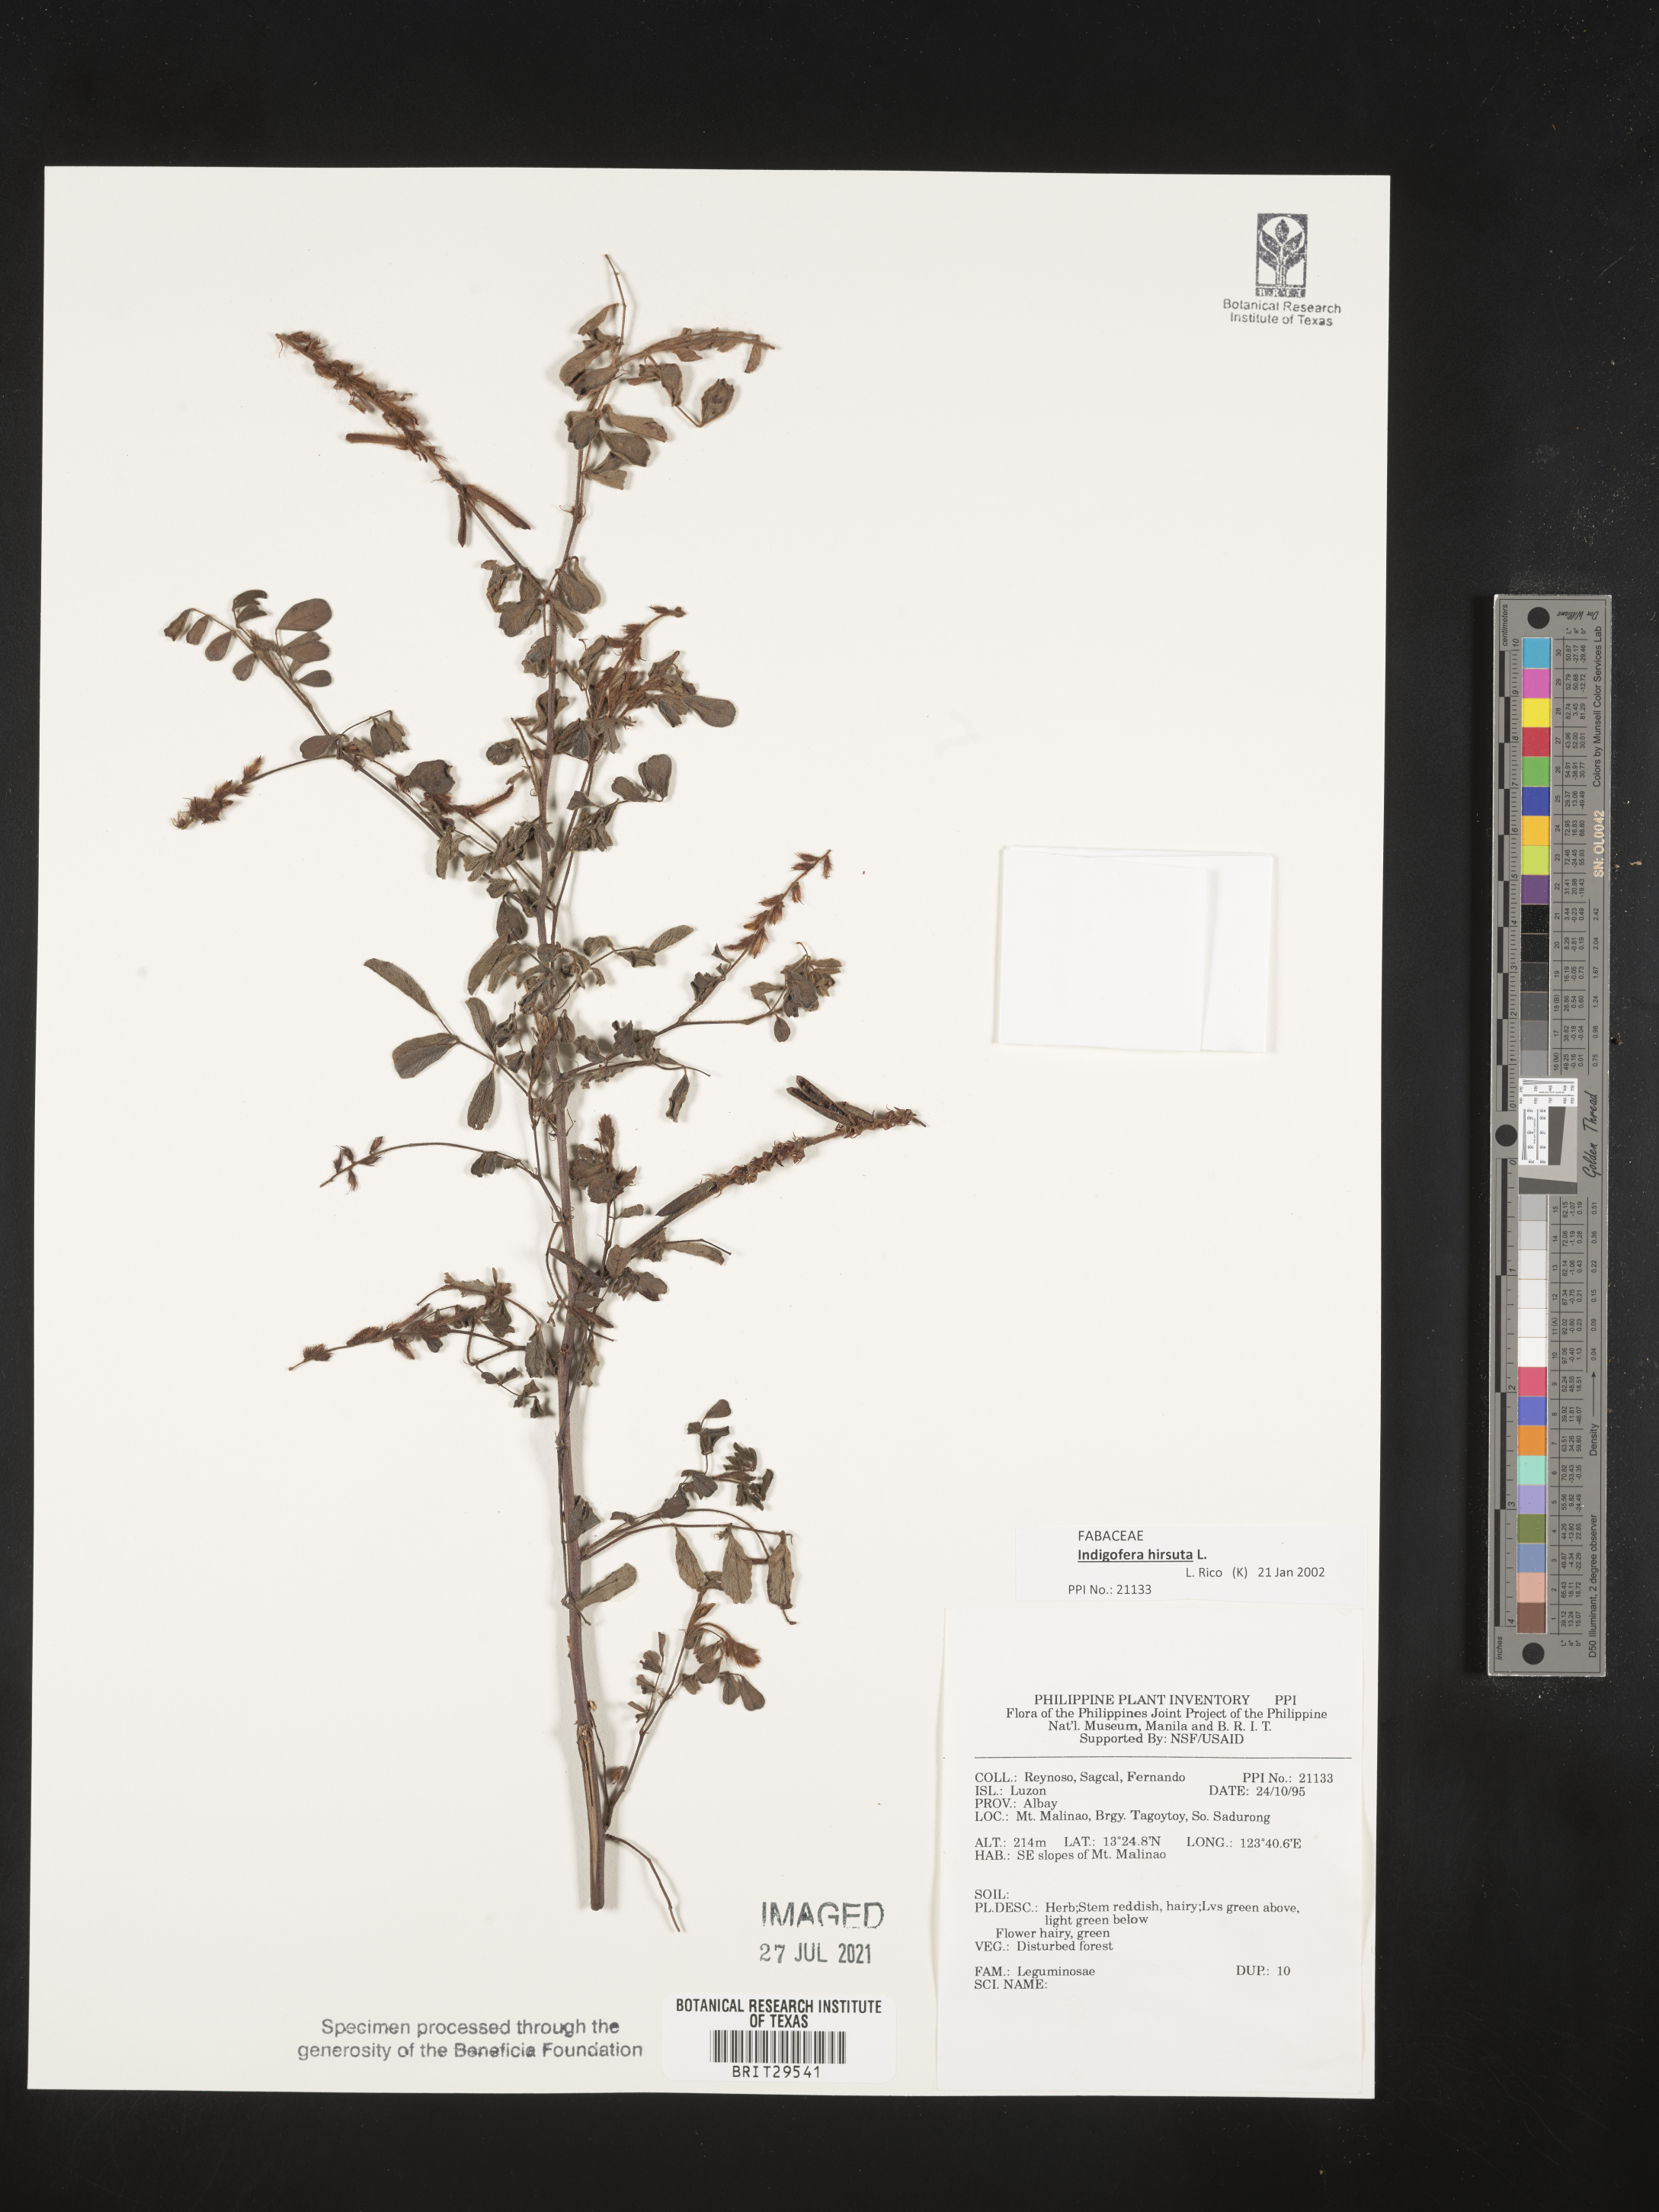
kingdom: Plantae
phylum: Tracheophyta
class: Magnoliopsida
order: Fabales
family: Fabaceae
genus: Indigofera
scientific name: Indigofera hirsuta
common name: Hairy indigo
